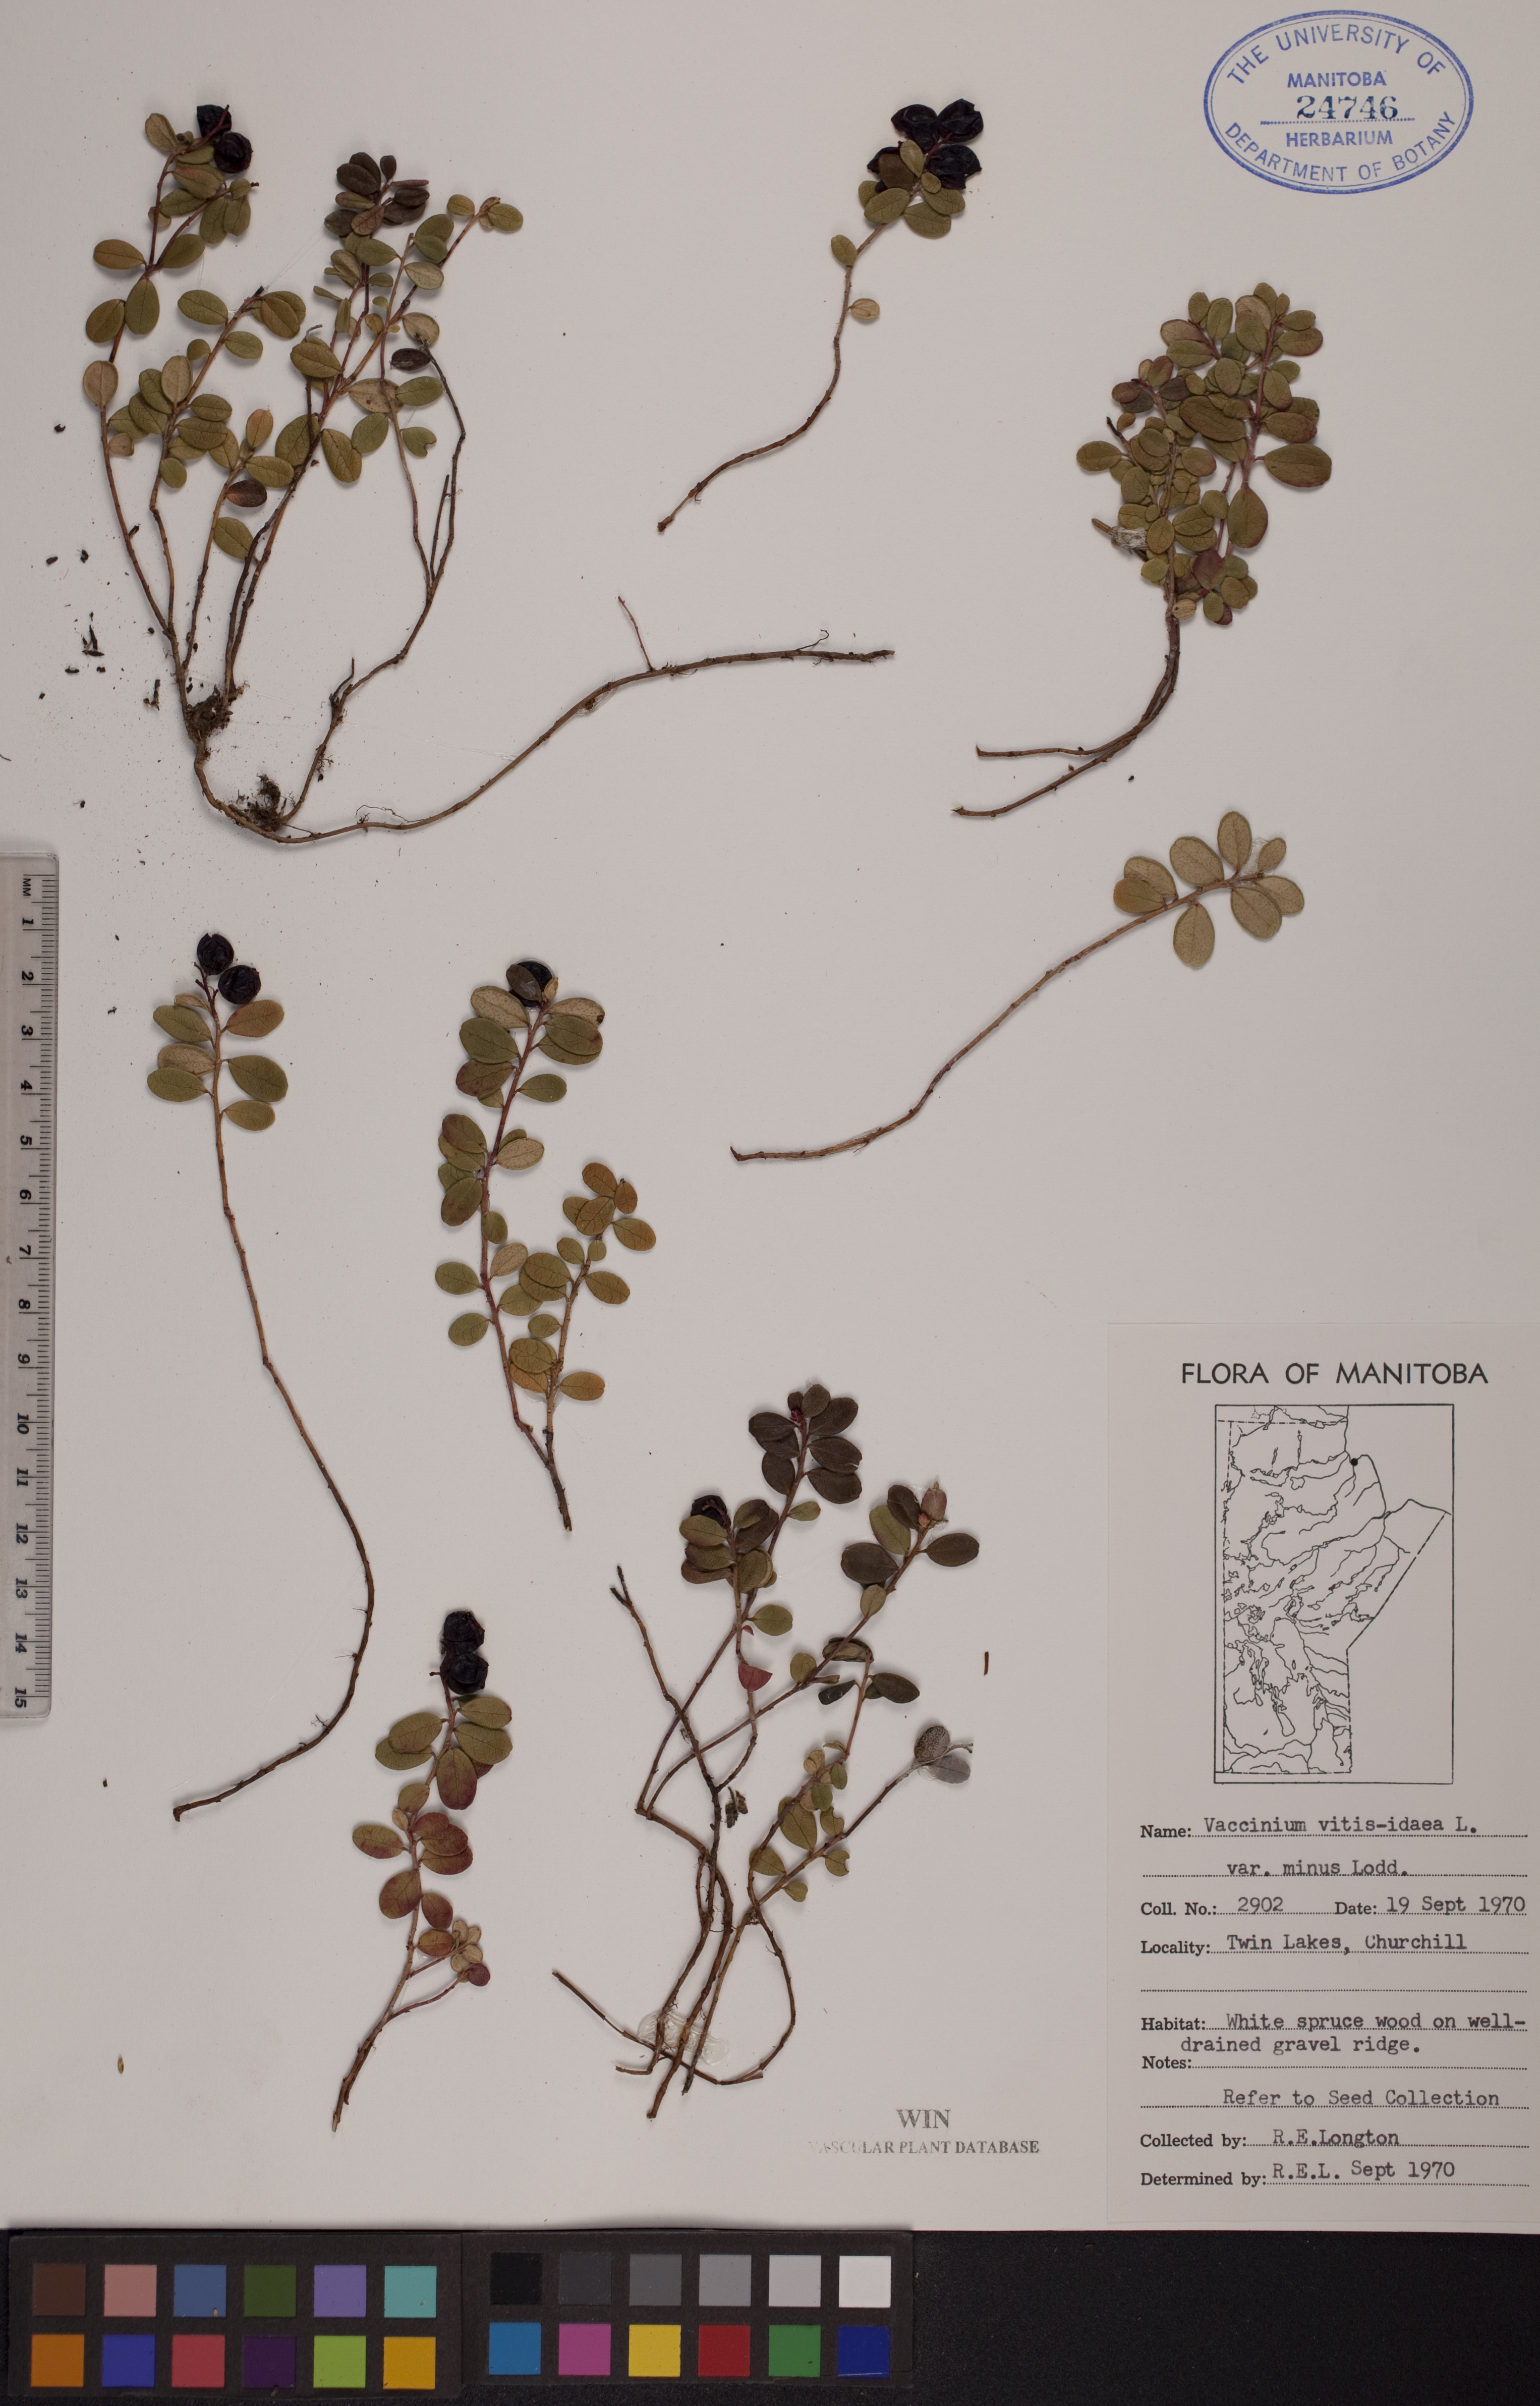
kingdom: Plantae
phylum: Tracheophyta
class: Magnoliopsida
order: Ericales
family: Ericaceae
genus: Vaccinium
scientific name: Vaccinium vitis-idaea
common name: Cowberry
